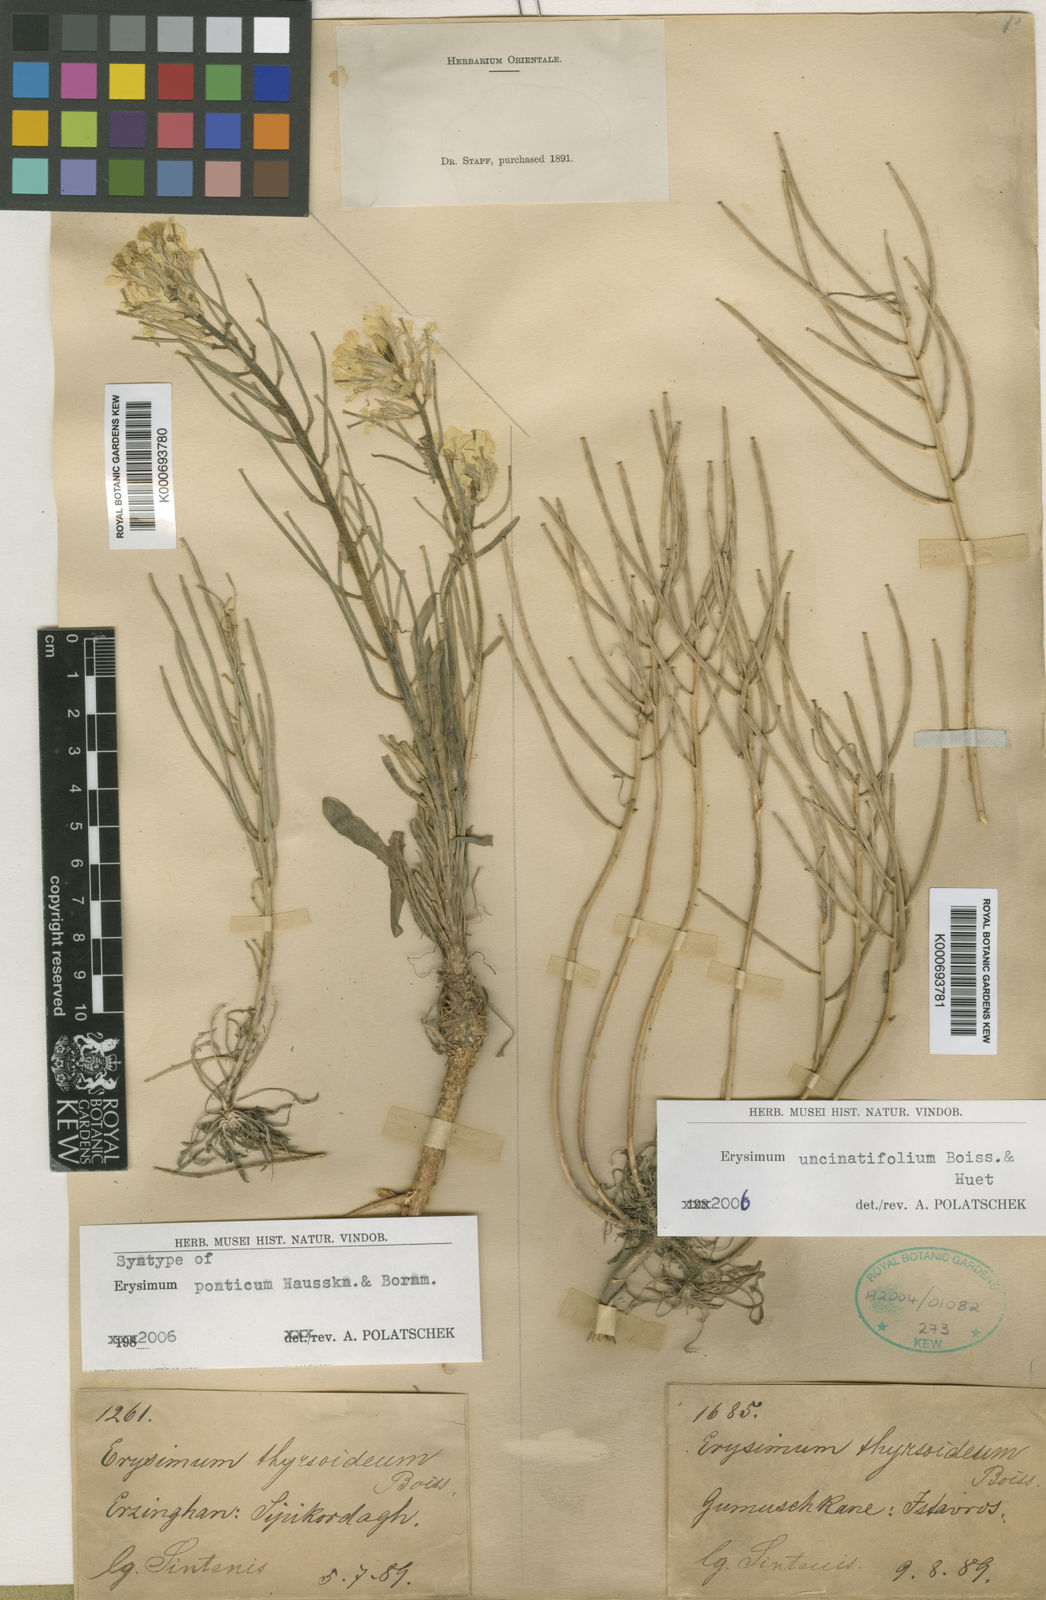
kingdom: Plantae
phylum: Tracheophyta
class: Magnoliopsida
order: Brassicales
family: Brassicaceae
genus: Erysimum
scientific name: Erysimum pycnophyllum
